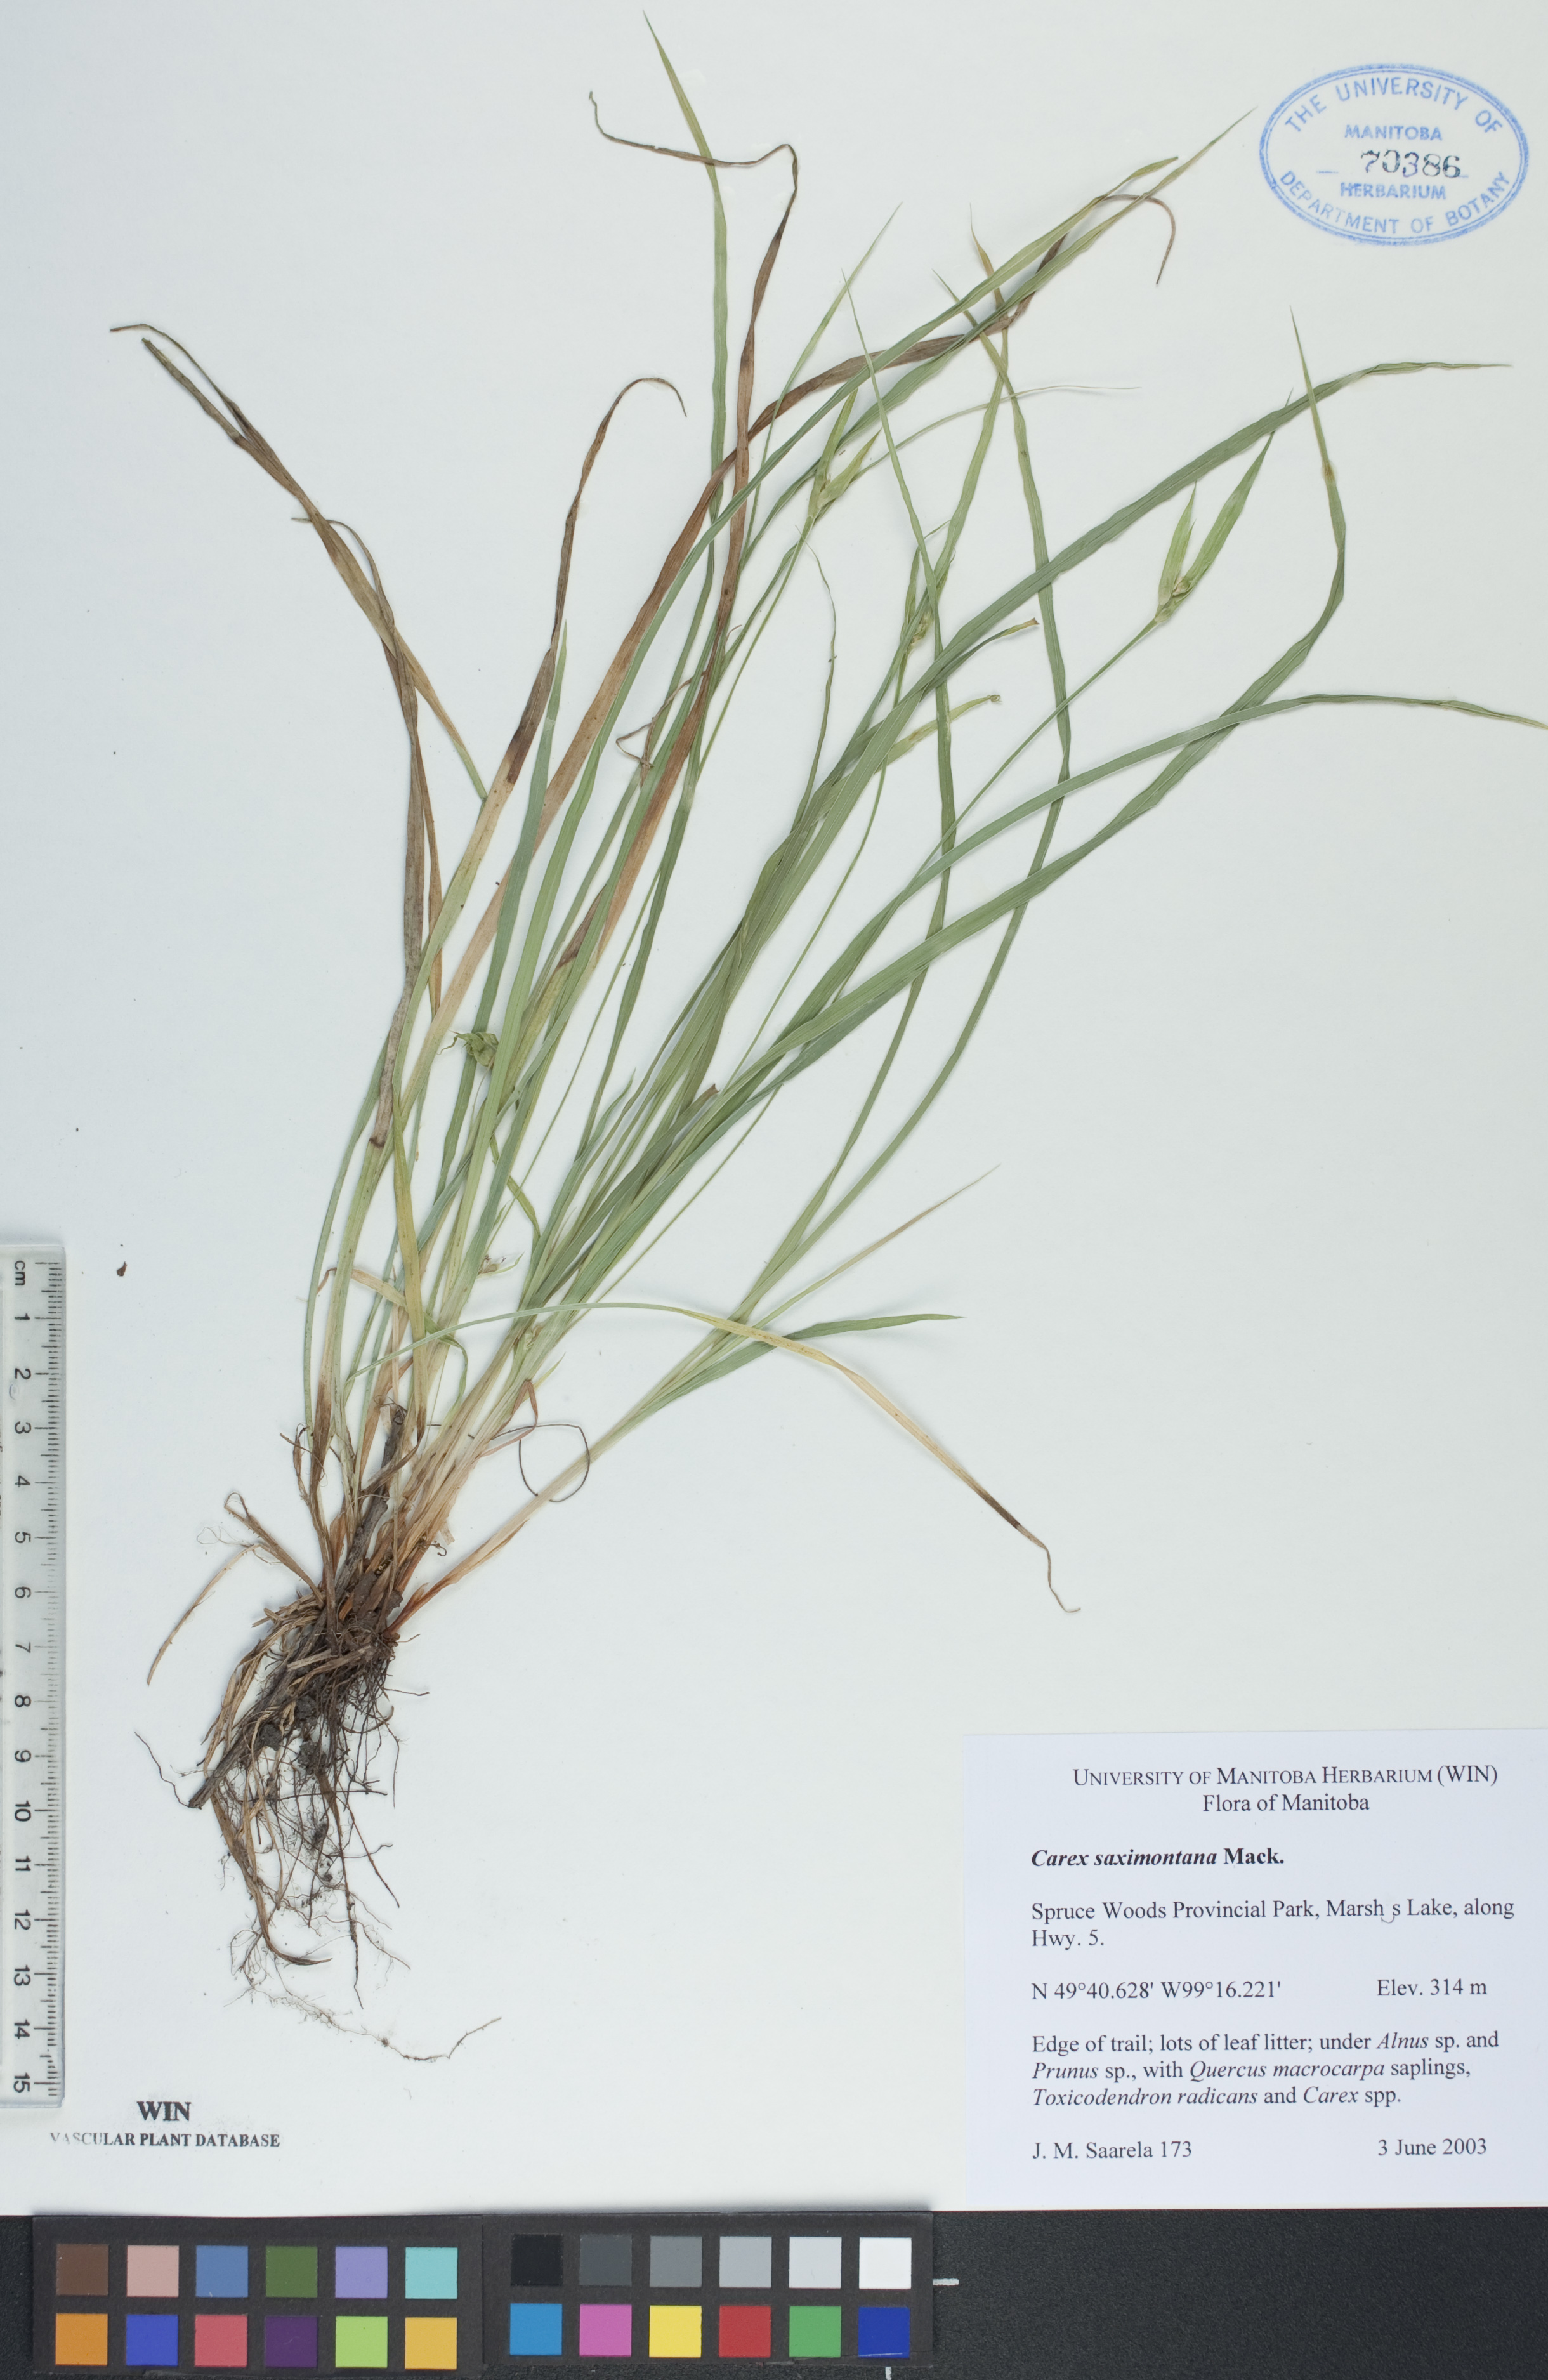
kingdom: Plantae
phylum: Tracheophyta
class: Liliopsida
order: Poales
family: Cyperaceae
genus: Carex
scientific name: Carex saximontana
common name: Rocky mountain sedge
